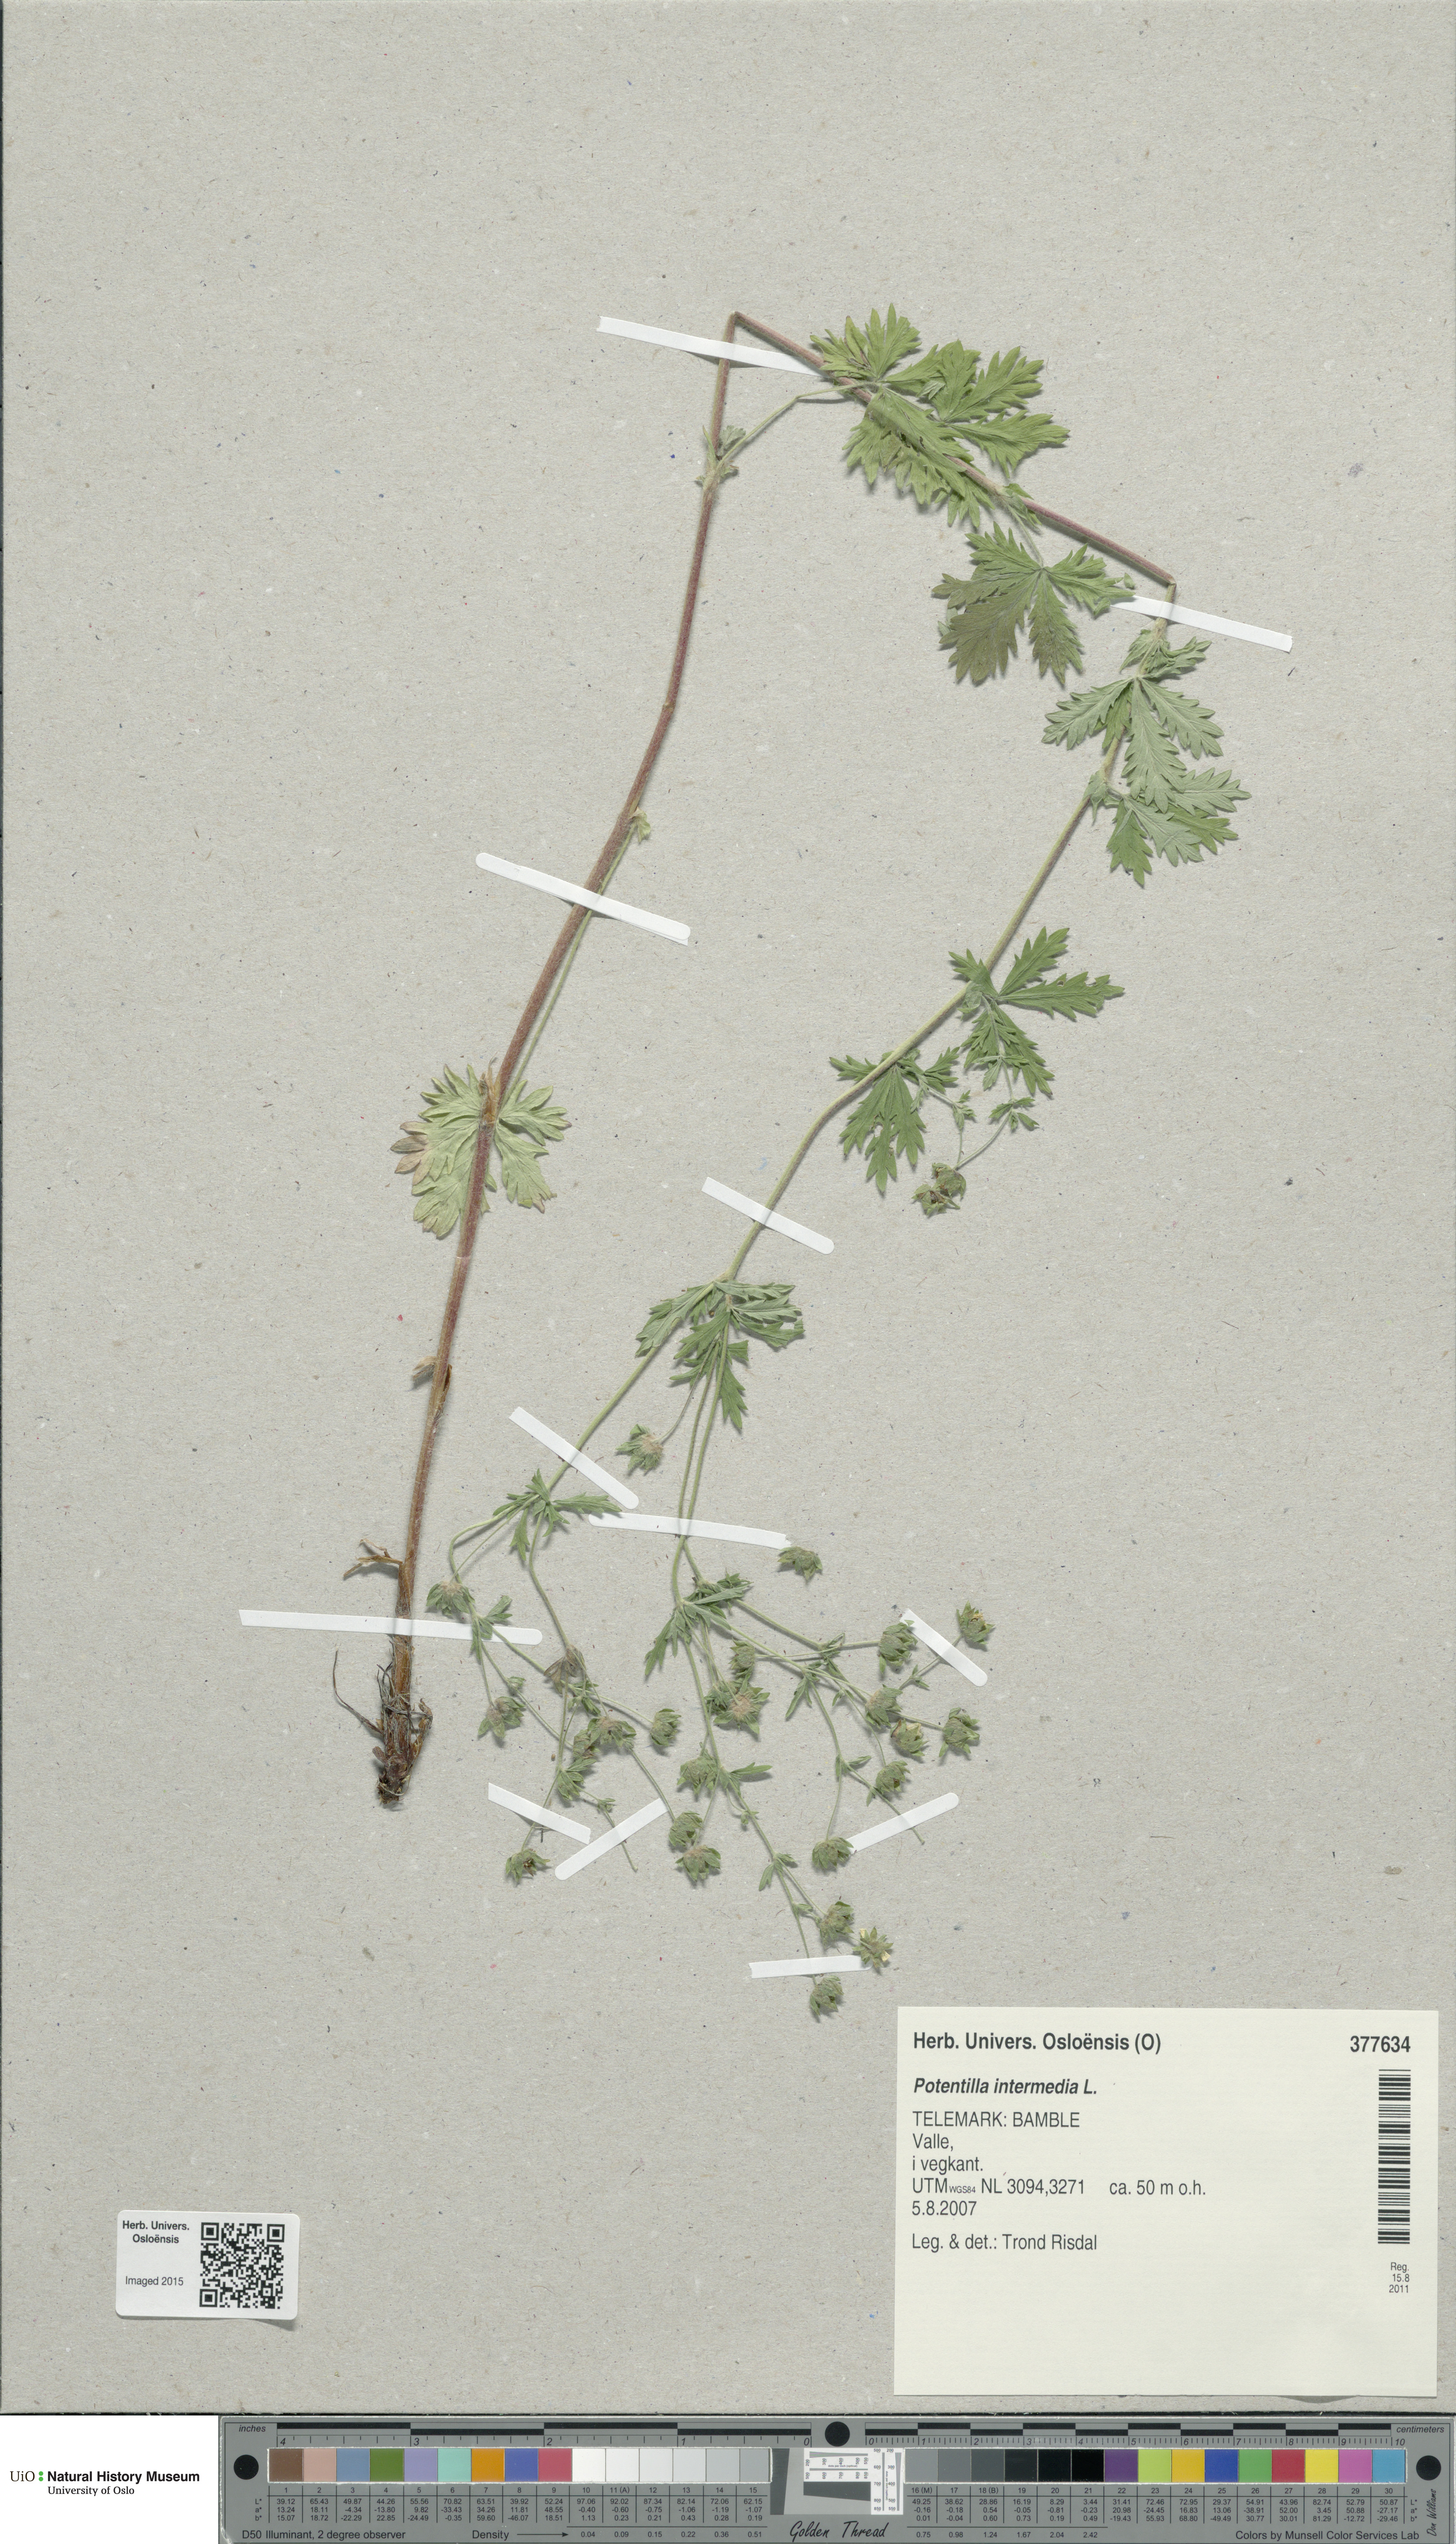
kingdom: Plantae
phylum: Tracheophyta
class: Magnoliopsida
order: Rosales
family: Rosaceae
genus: Potentilla
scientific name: Potentilla intermedia
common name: Downy cinquefoil
